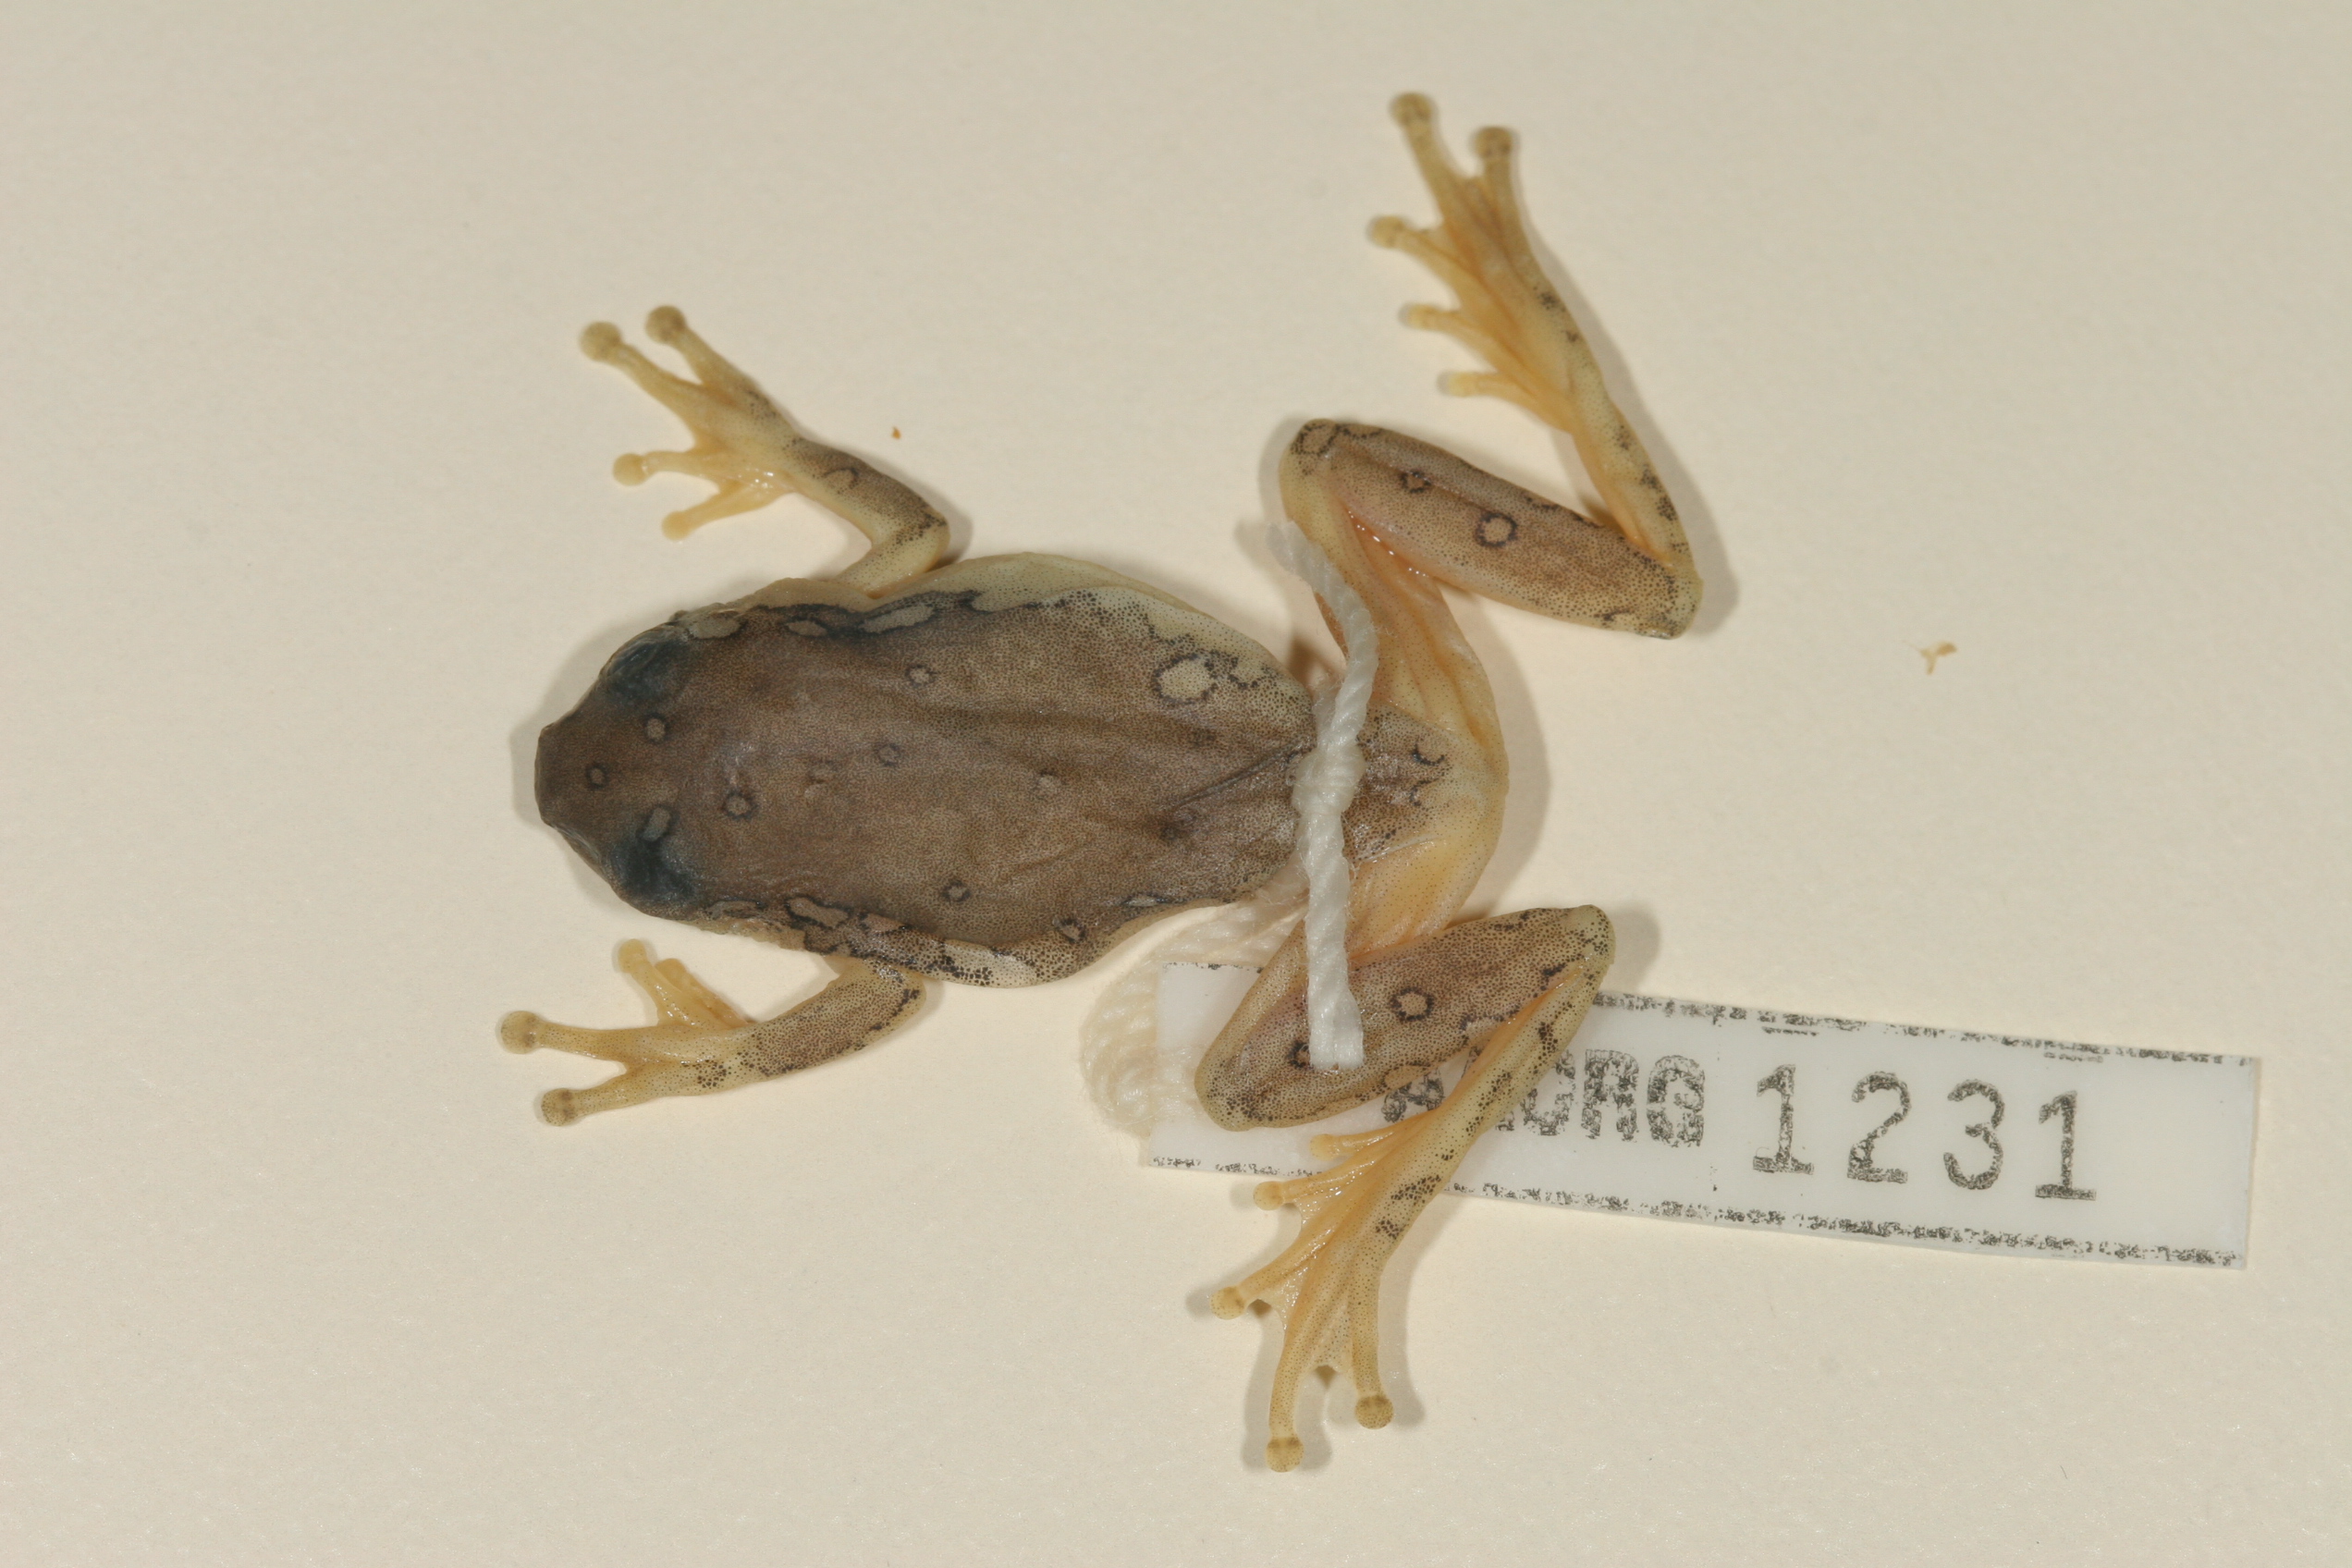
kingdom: Animalia
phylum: Chordata
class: Amphibia
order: Anura
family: Hyperoliidae
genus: Hyperolius
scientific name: Hyperolius marmoratus
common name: Painted reed frog
